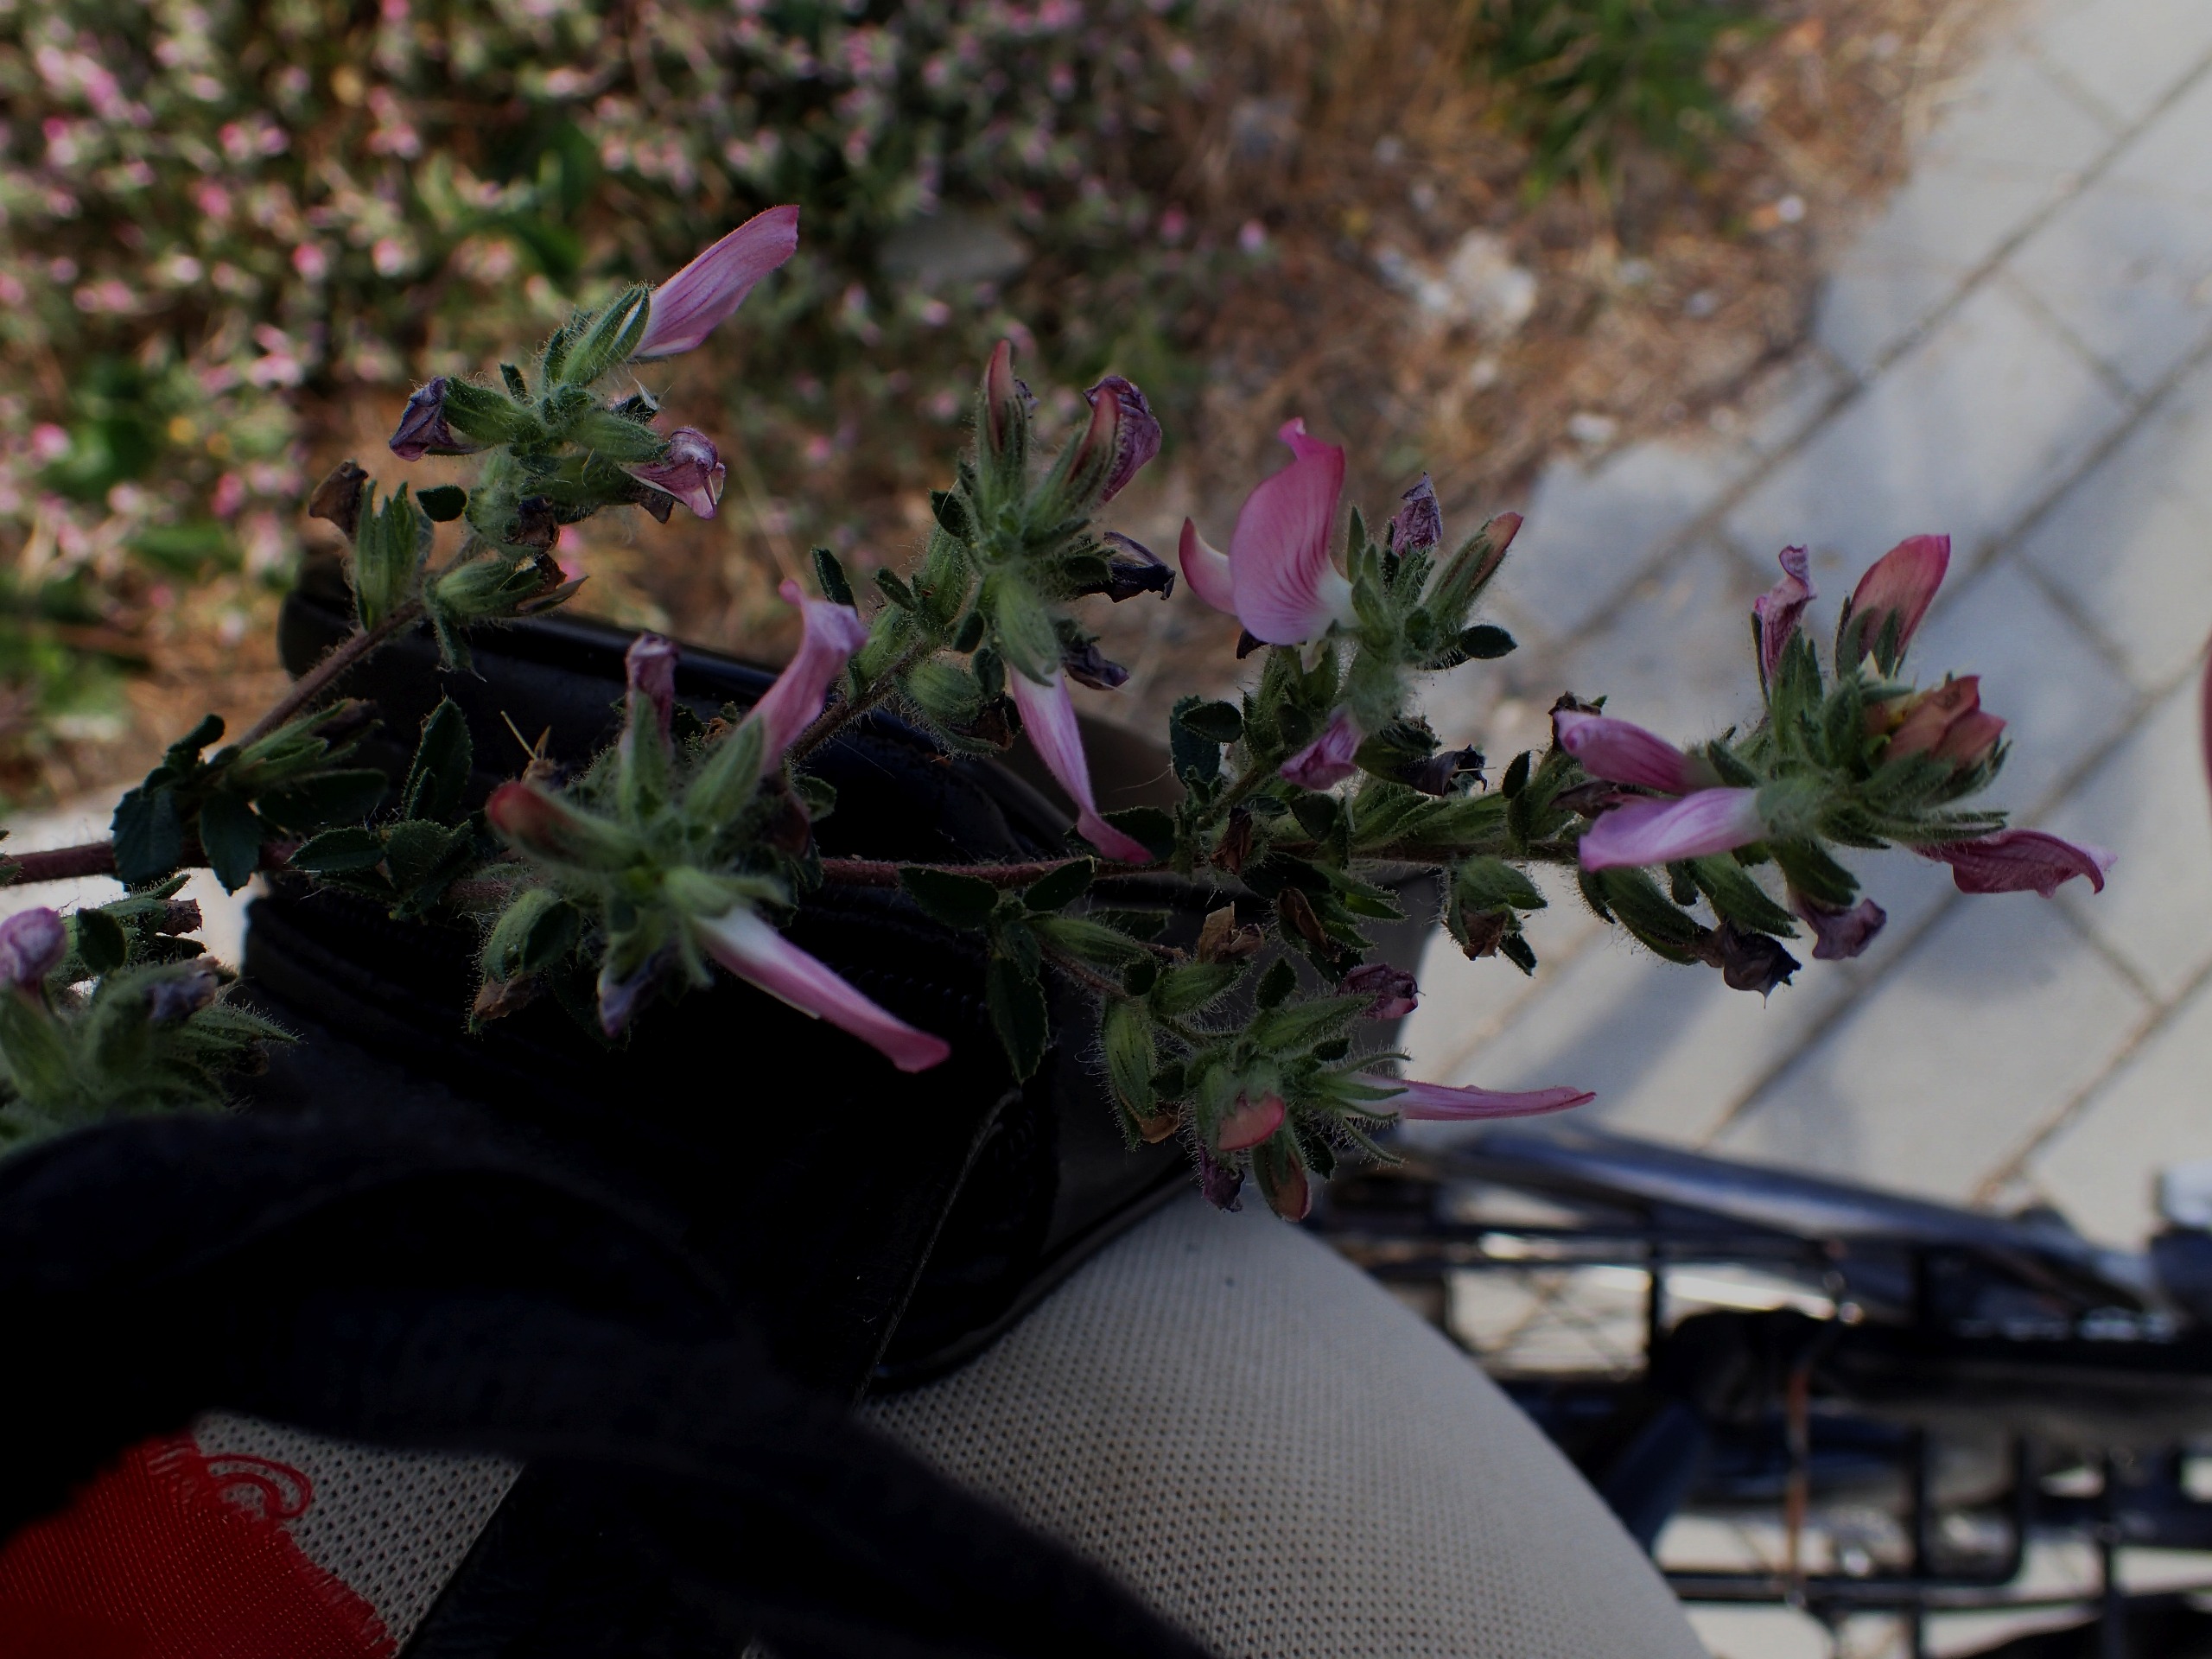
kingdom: Plantae
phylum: Tracheophyta
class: Magnoliopsida
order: Fabales
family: Fabaceae
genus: Ononis
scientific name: Ononis spinosa
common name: Mark-krageklo
